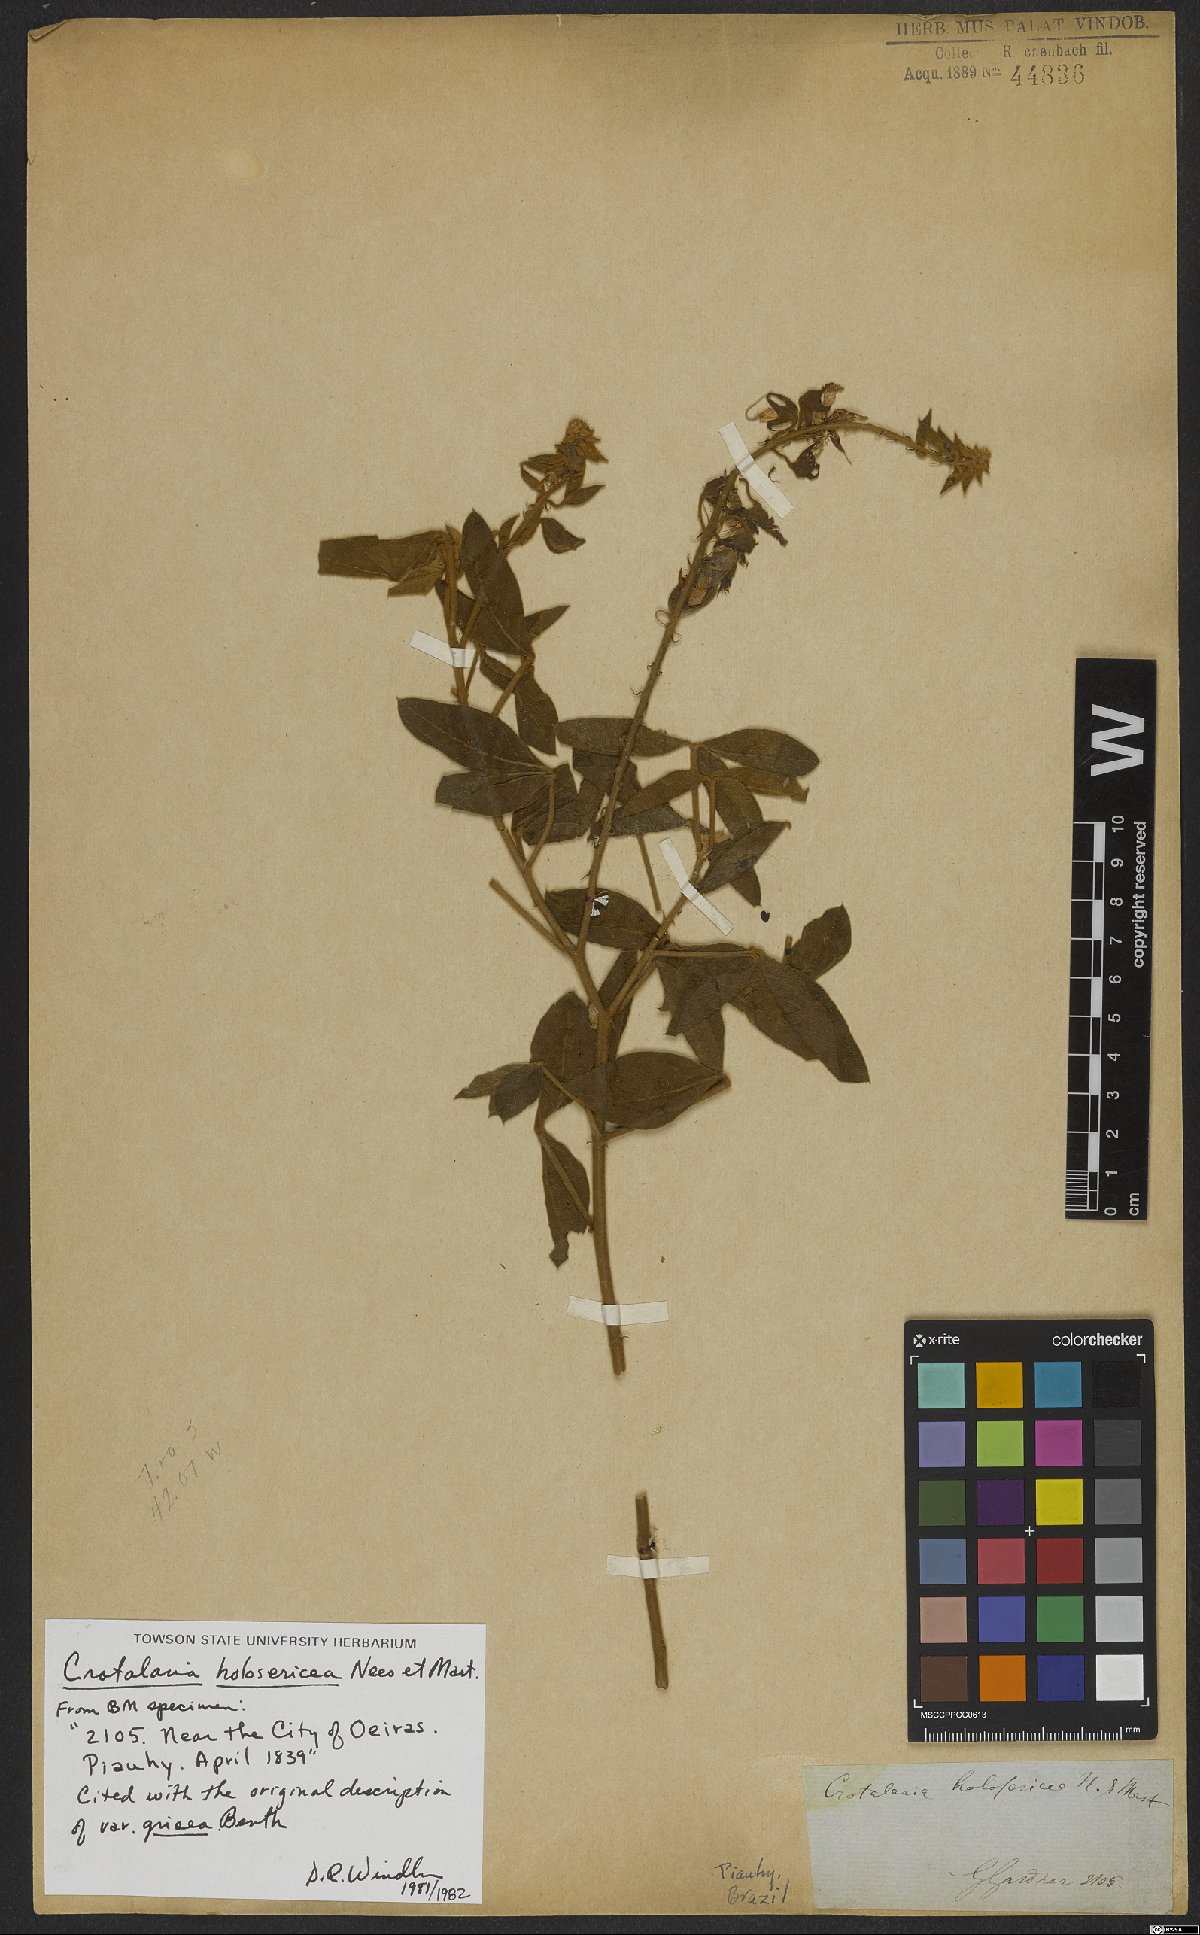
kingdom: Plantae
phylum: Tracheophyta
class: Magnoliopsida
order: Fabales
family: Fabaceae
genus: Crotalaria
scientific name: Crotalaria holosericea
